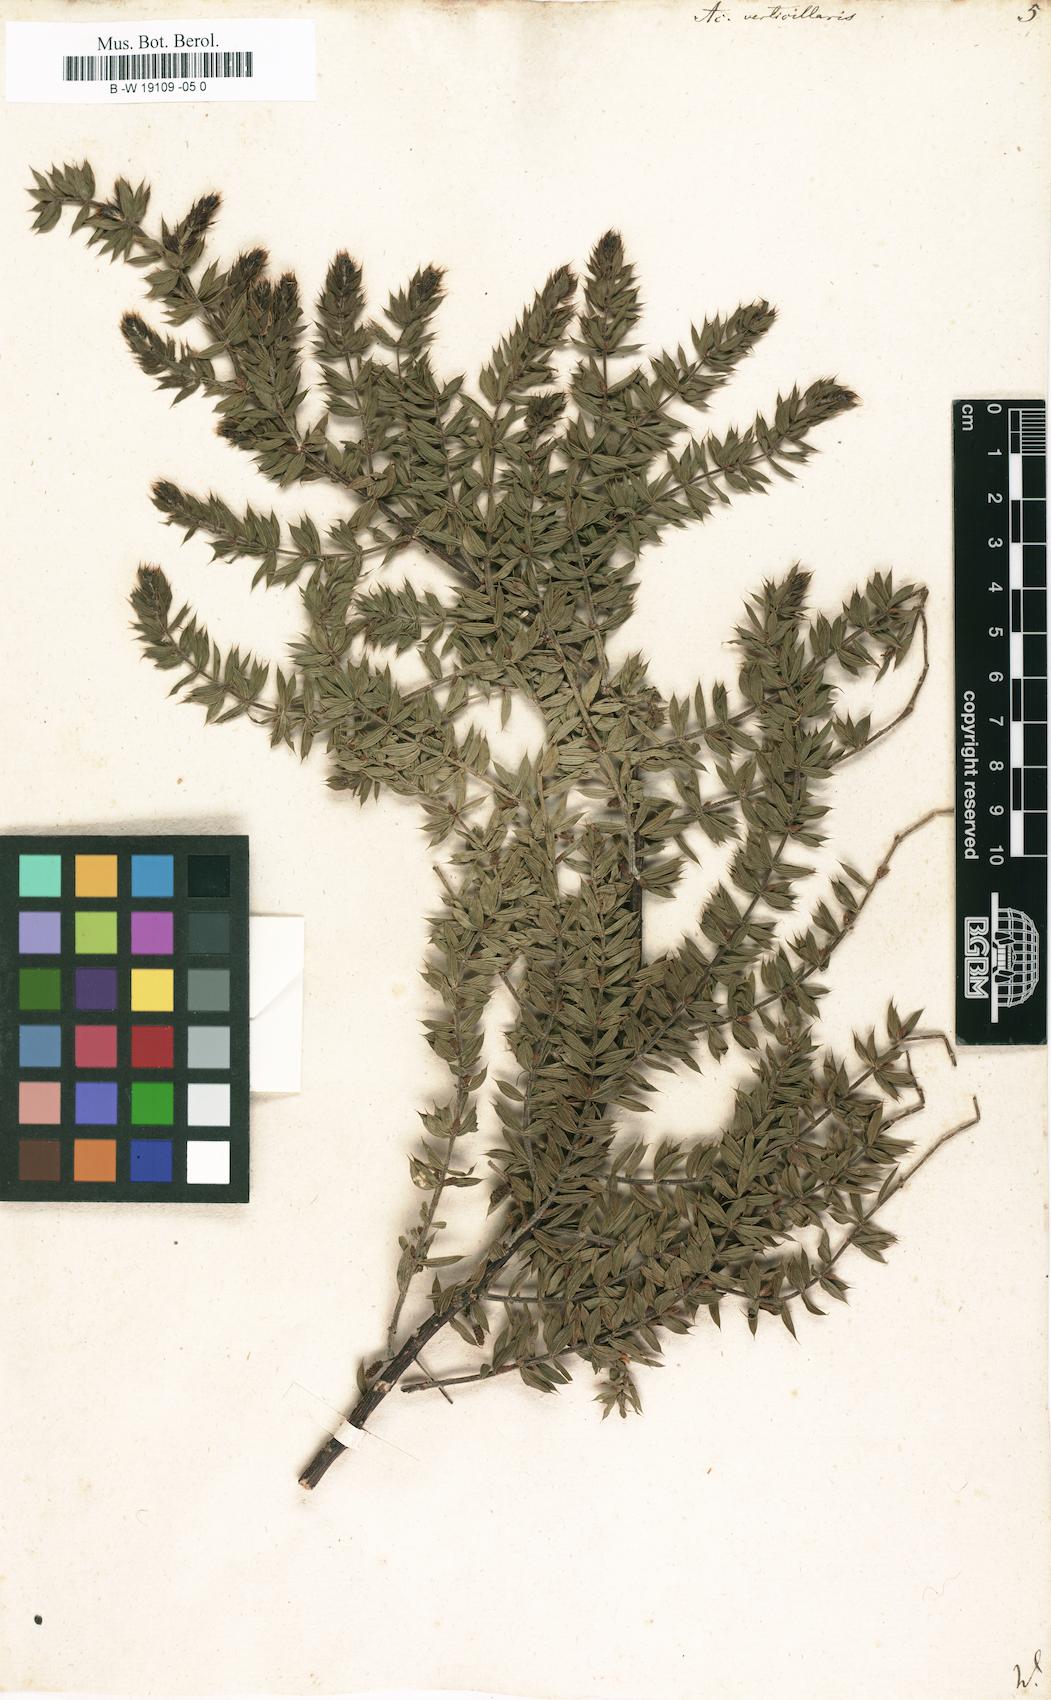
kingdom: Plantae
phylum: Tracheophyta
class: Magnoliopsida
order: Fabales
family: Fabaceae
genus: Acacia
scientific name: Acacia verticillata
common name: Prickly moses
